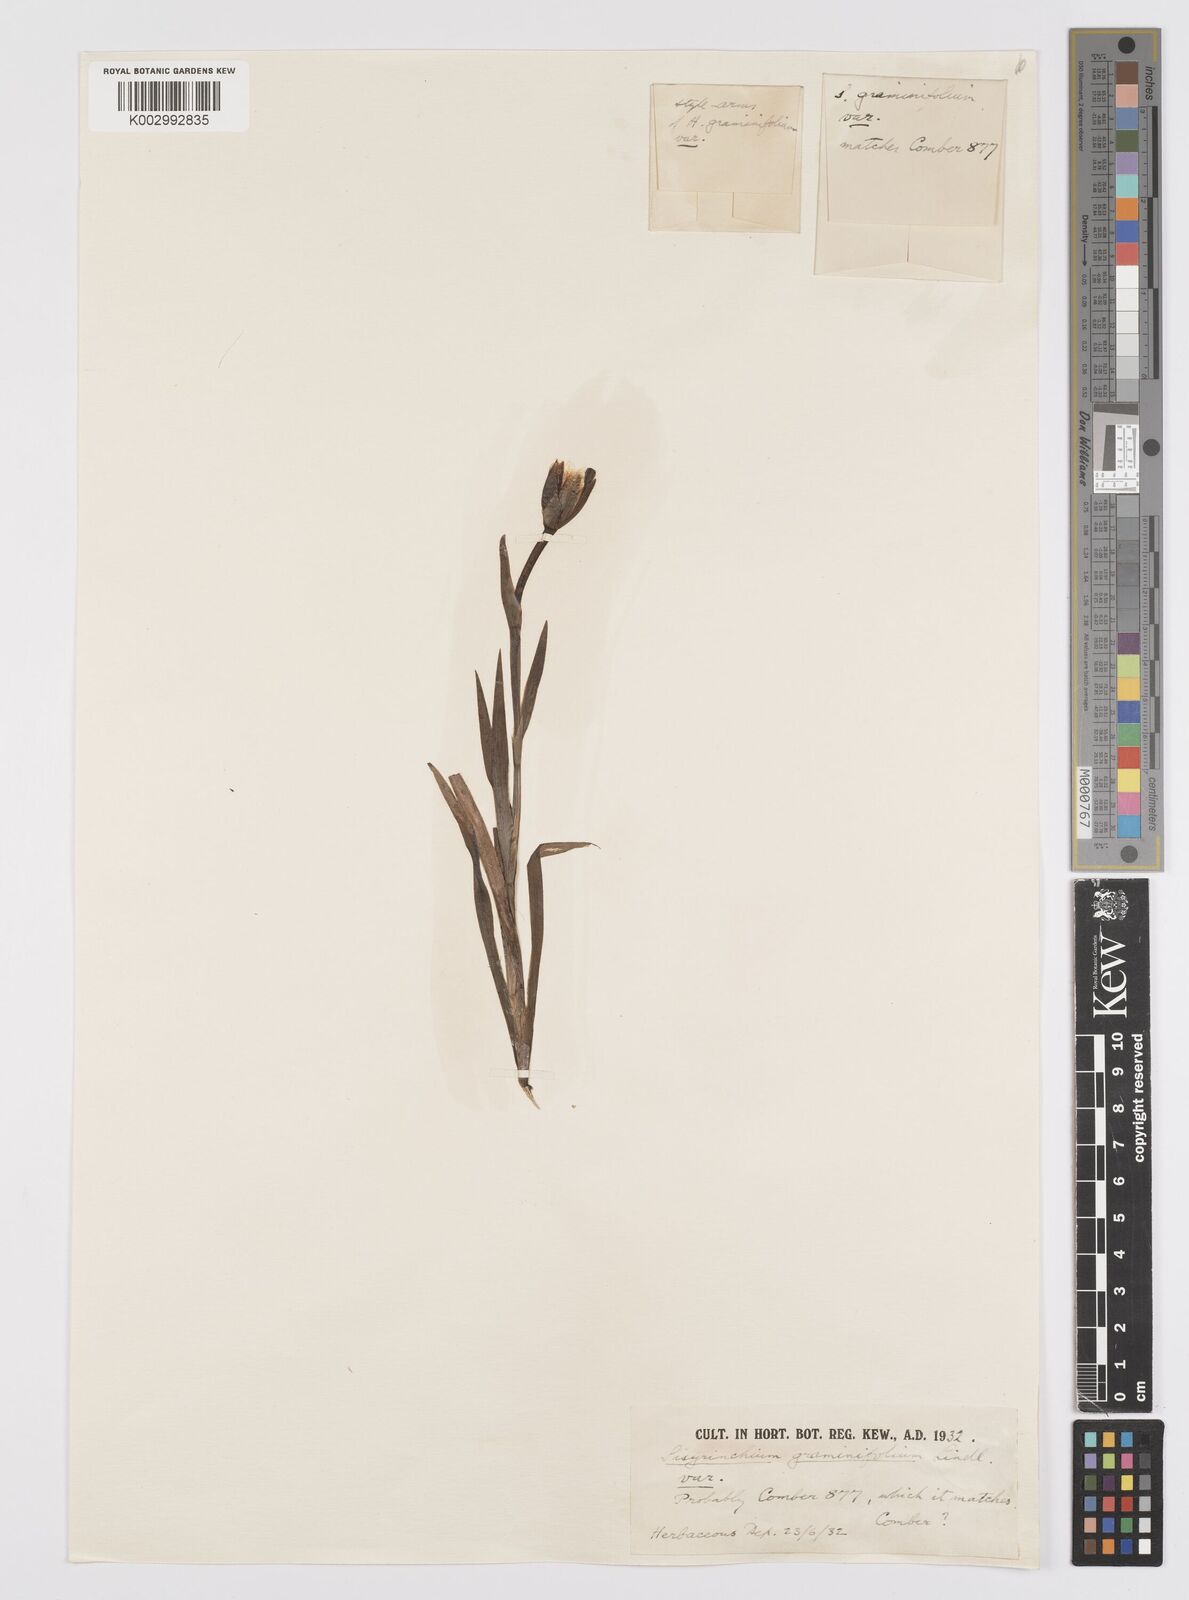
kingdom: Plantae
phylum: Tracheophyta
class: Liliopsida
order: Asparagales
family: Iridaceae
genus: Sisyrinchium
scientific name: Sisyrinchium graminifolium
